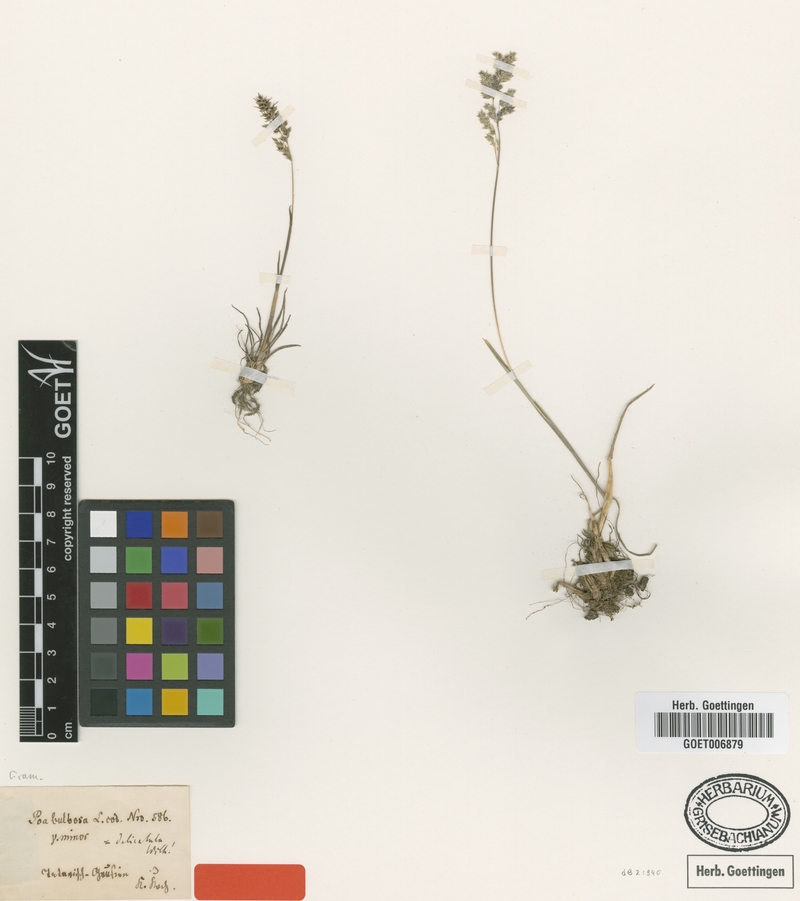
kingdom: Plantae
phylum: Tracheophyta
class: Liliopsida
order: Poales
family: Poaceae
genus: Poa
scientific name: Poa bulbosa
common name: Bulbous bluegrass
